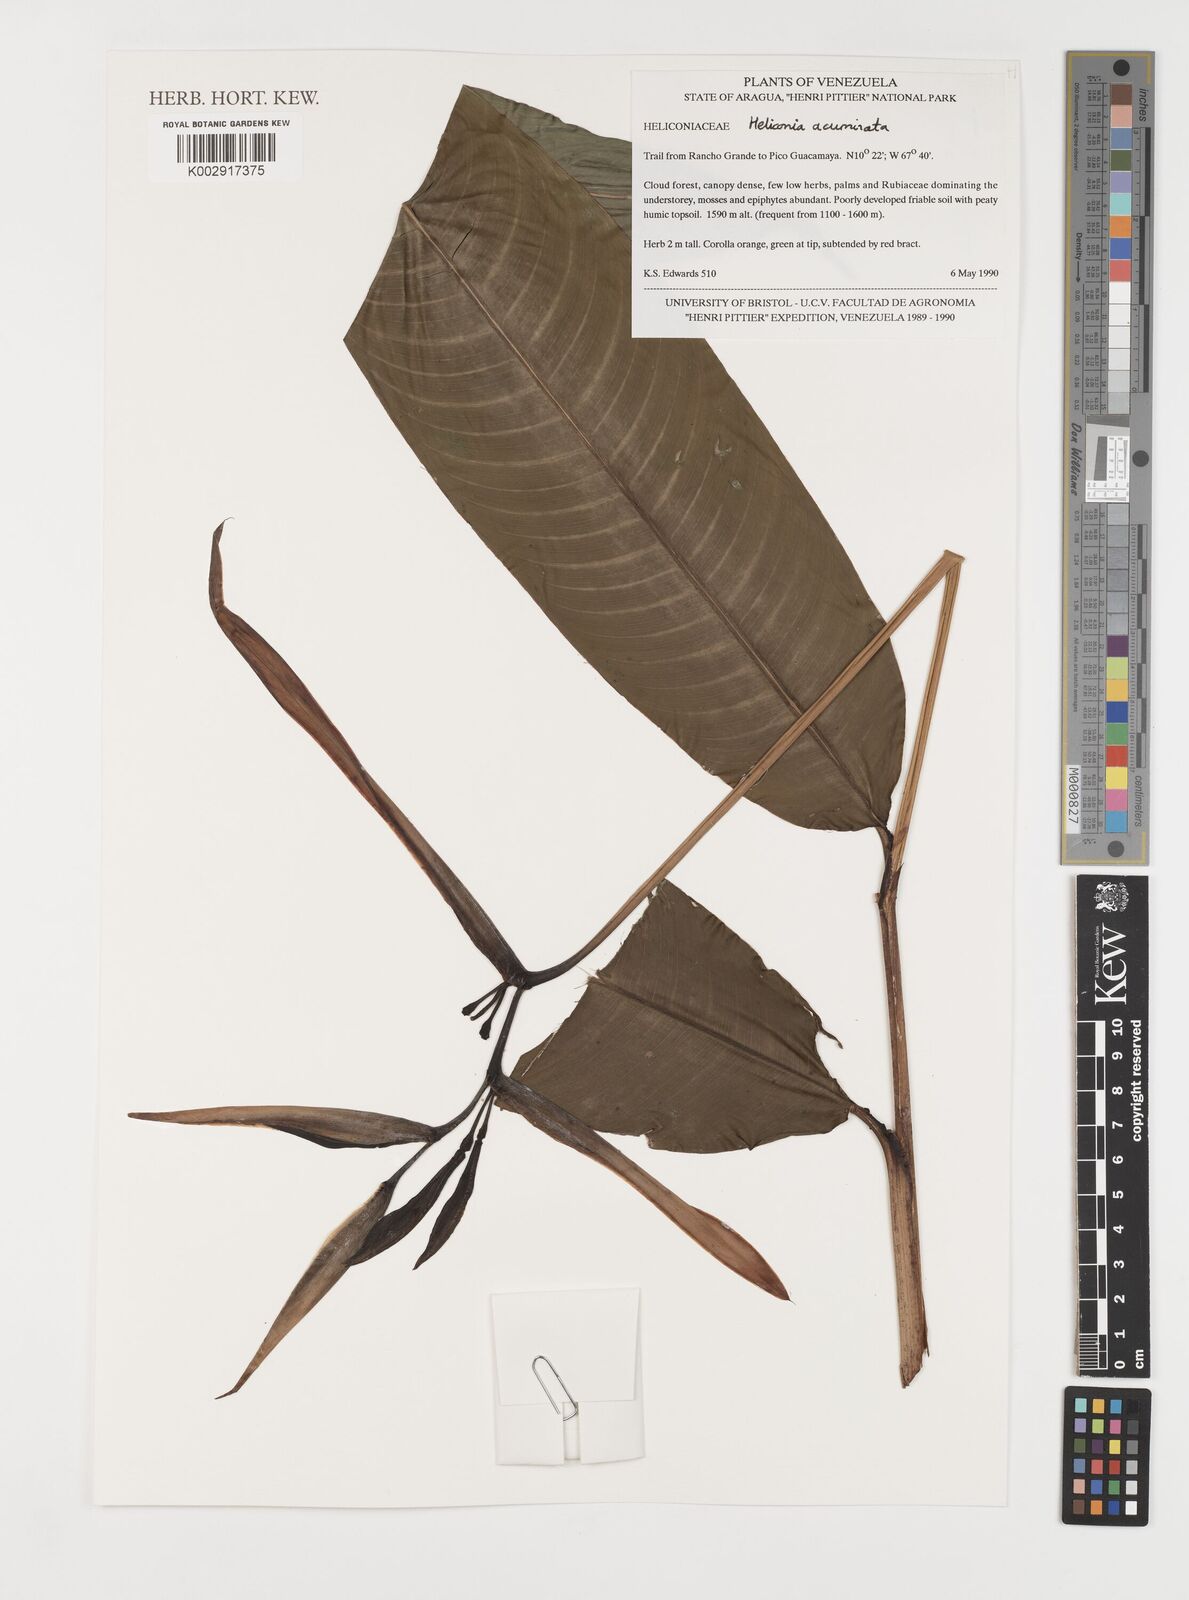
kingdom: Plantae
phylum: Tracheophyta
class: Liliopsida
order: Zingiberales
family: Heliconiaceae
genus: Heliconia
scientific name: Heliconia acuminata
